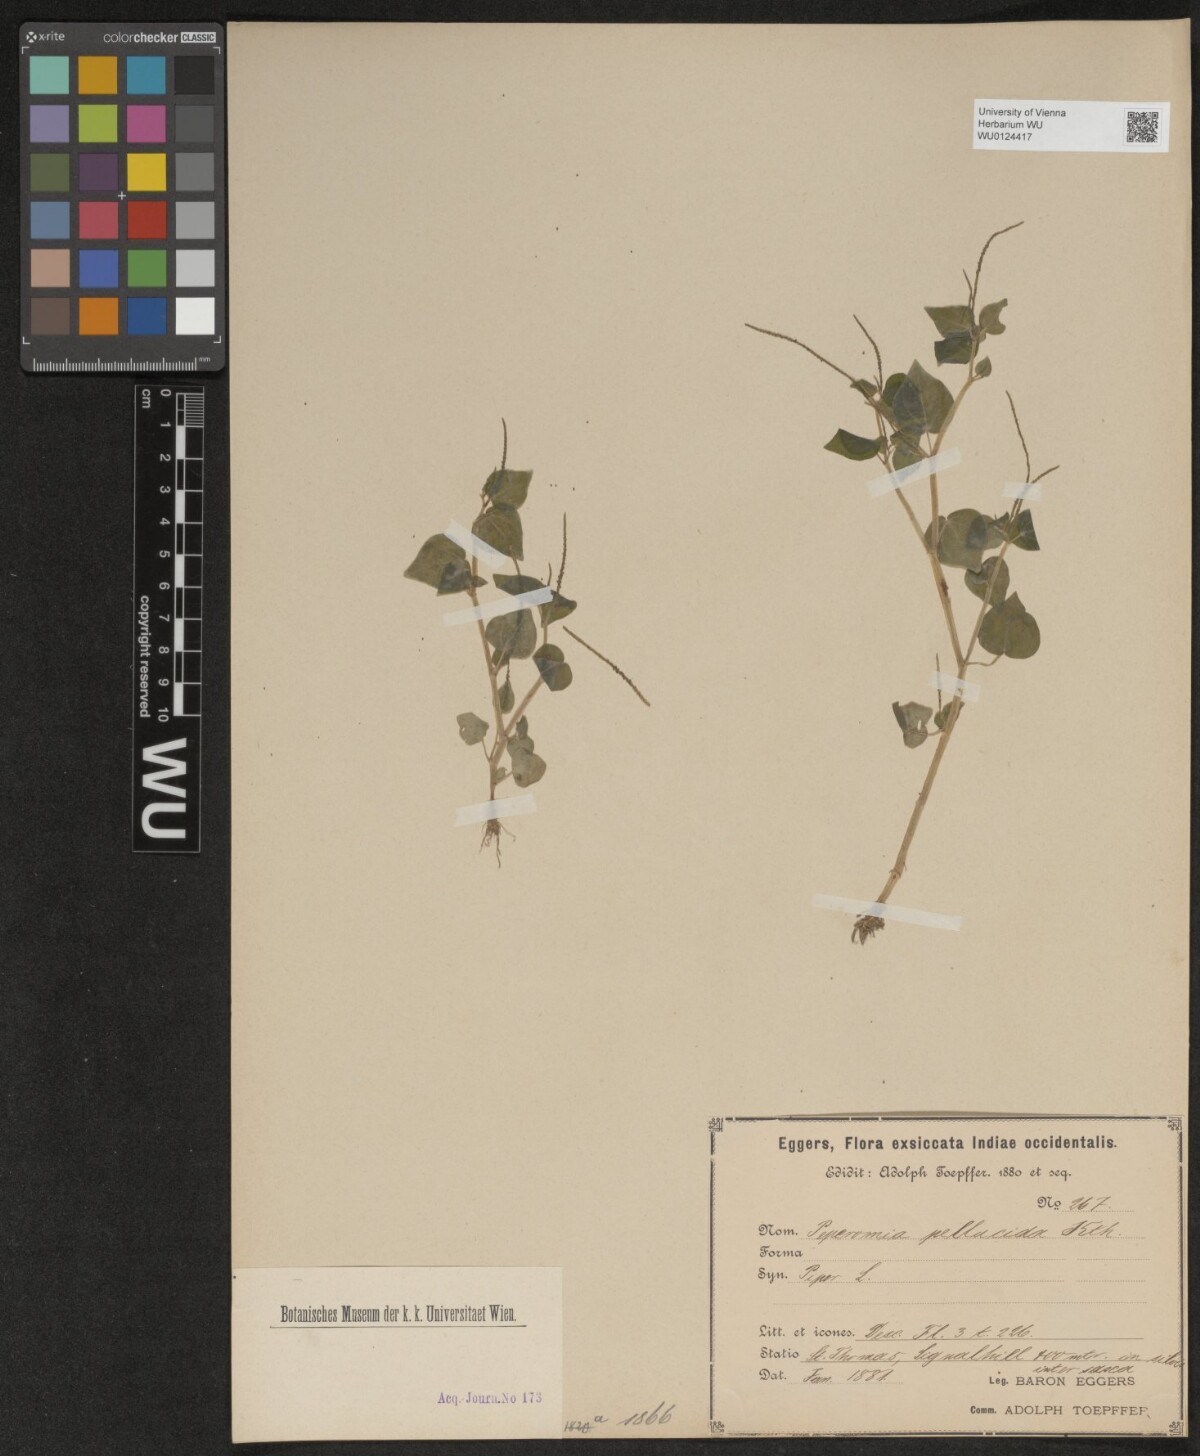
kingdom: Plantae
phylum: Tracheophyta
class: Magnoliopsida
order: Piperales
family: Piperaceae
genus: Peperomia
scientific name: Peperomia pellucida
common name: Man to man
